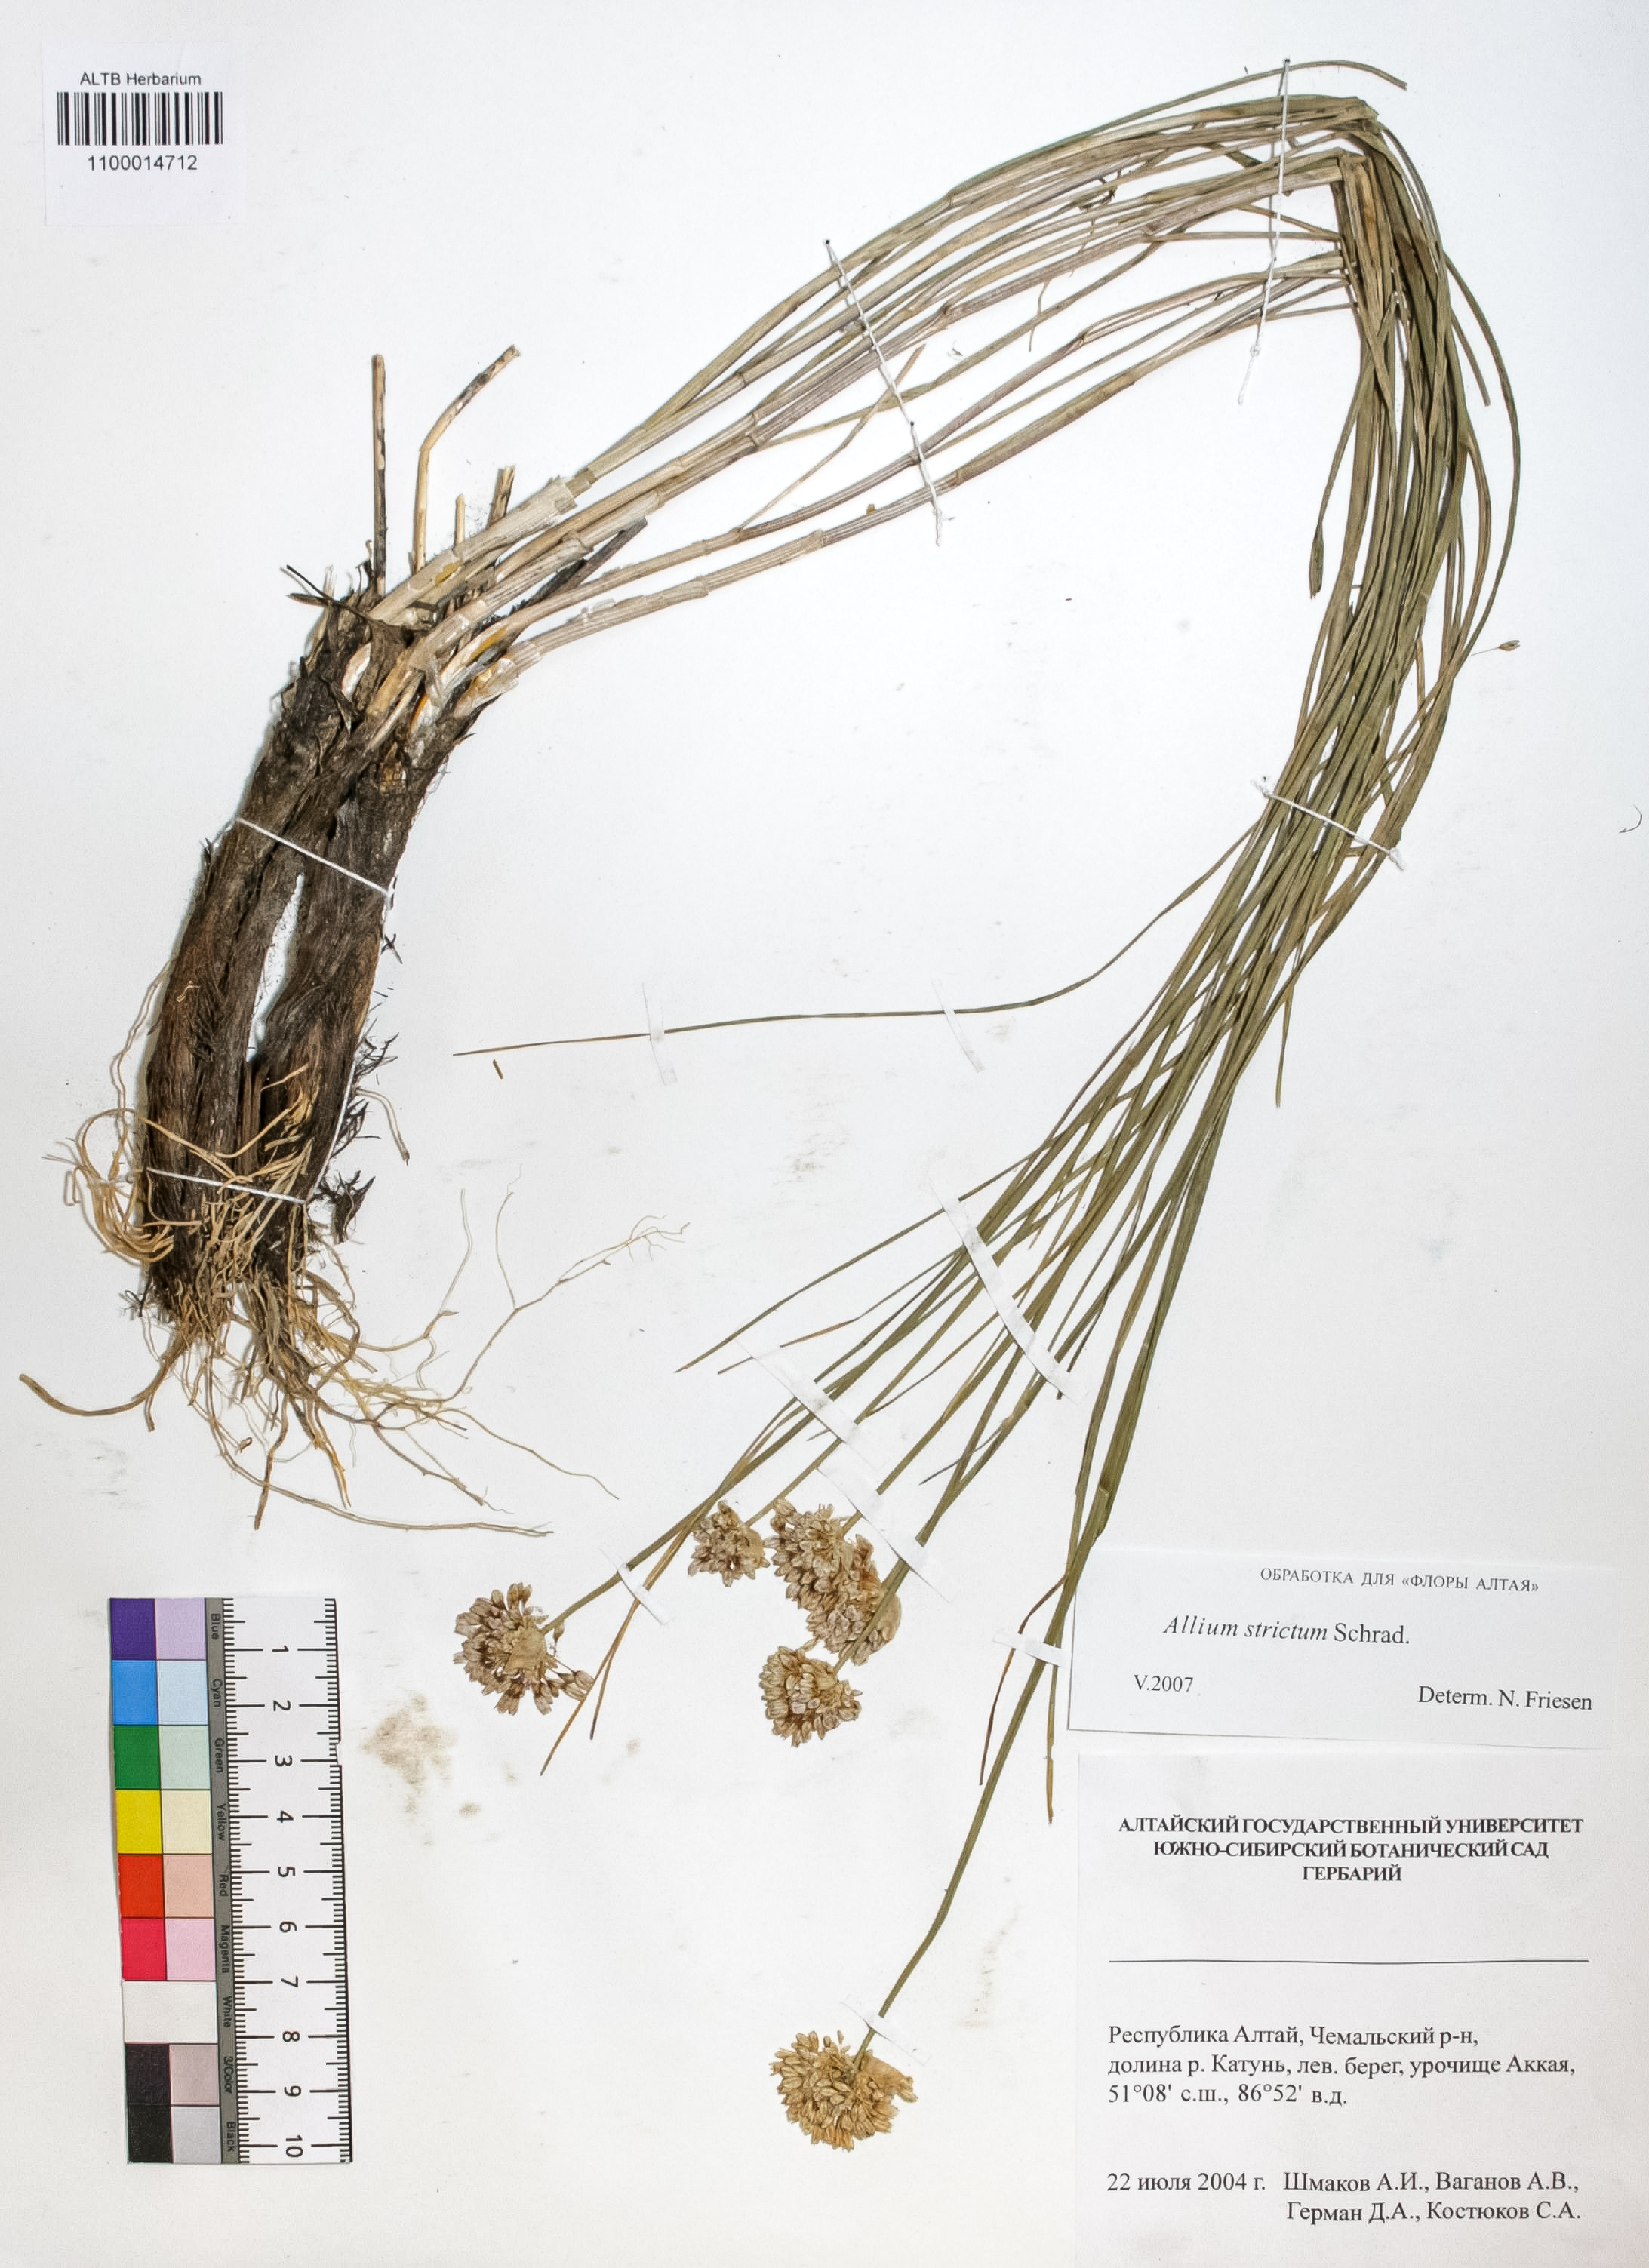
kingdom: Plantae
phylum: Tracheophyta
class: Liliopsida
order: Asparagales
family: Amaryllidaceae
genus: Allium
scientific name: Allium strictum
